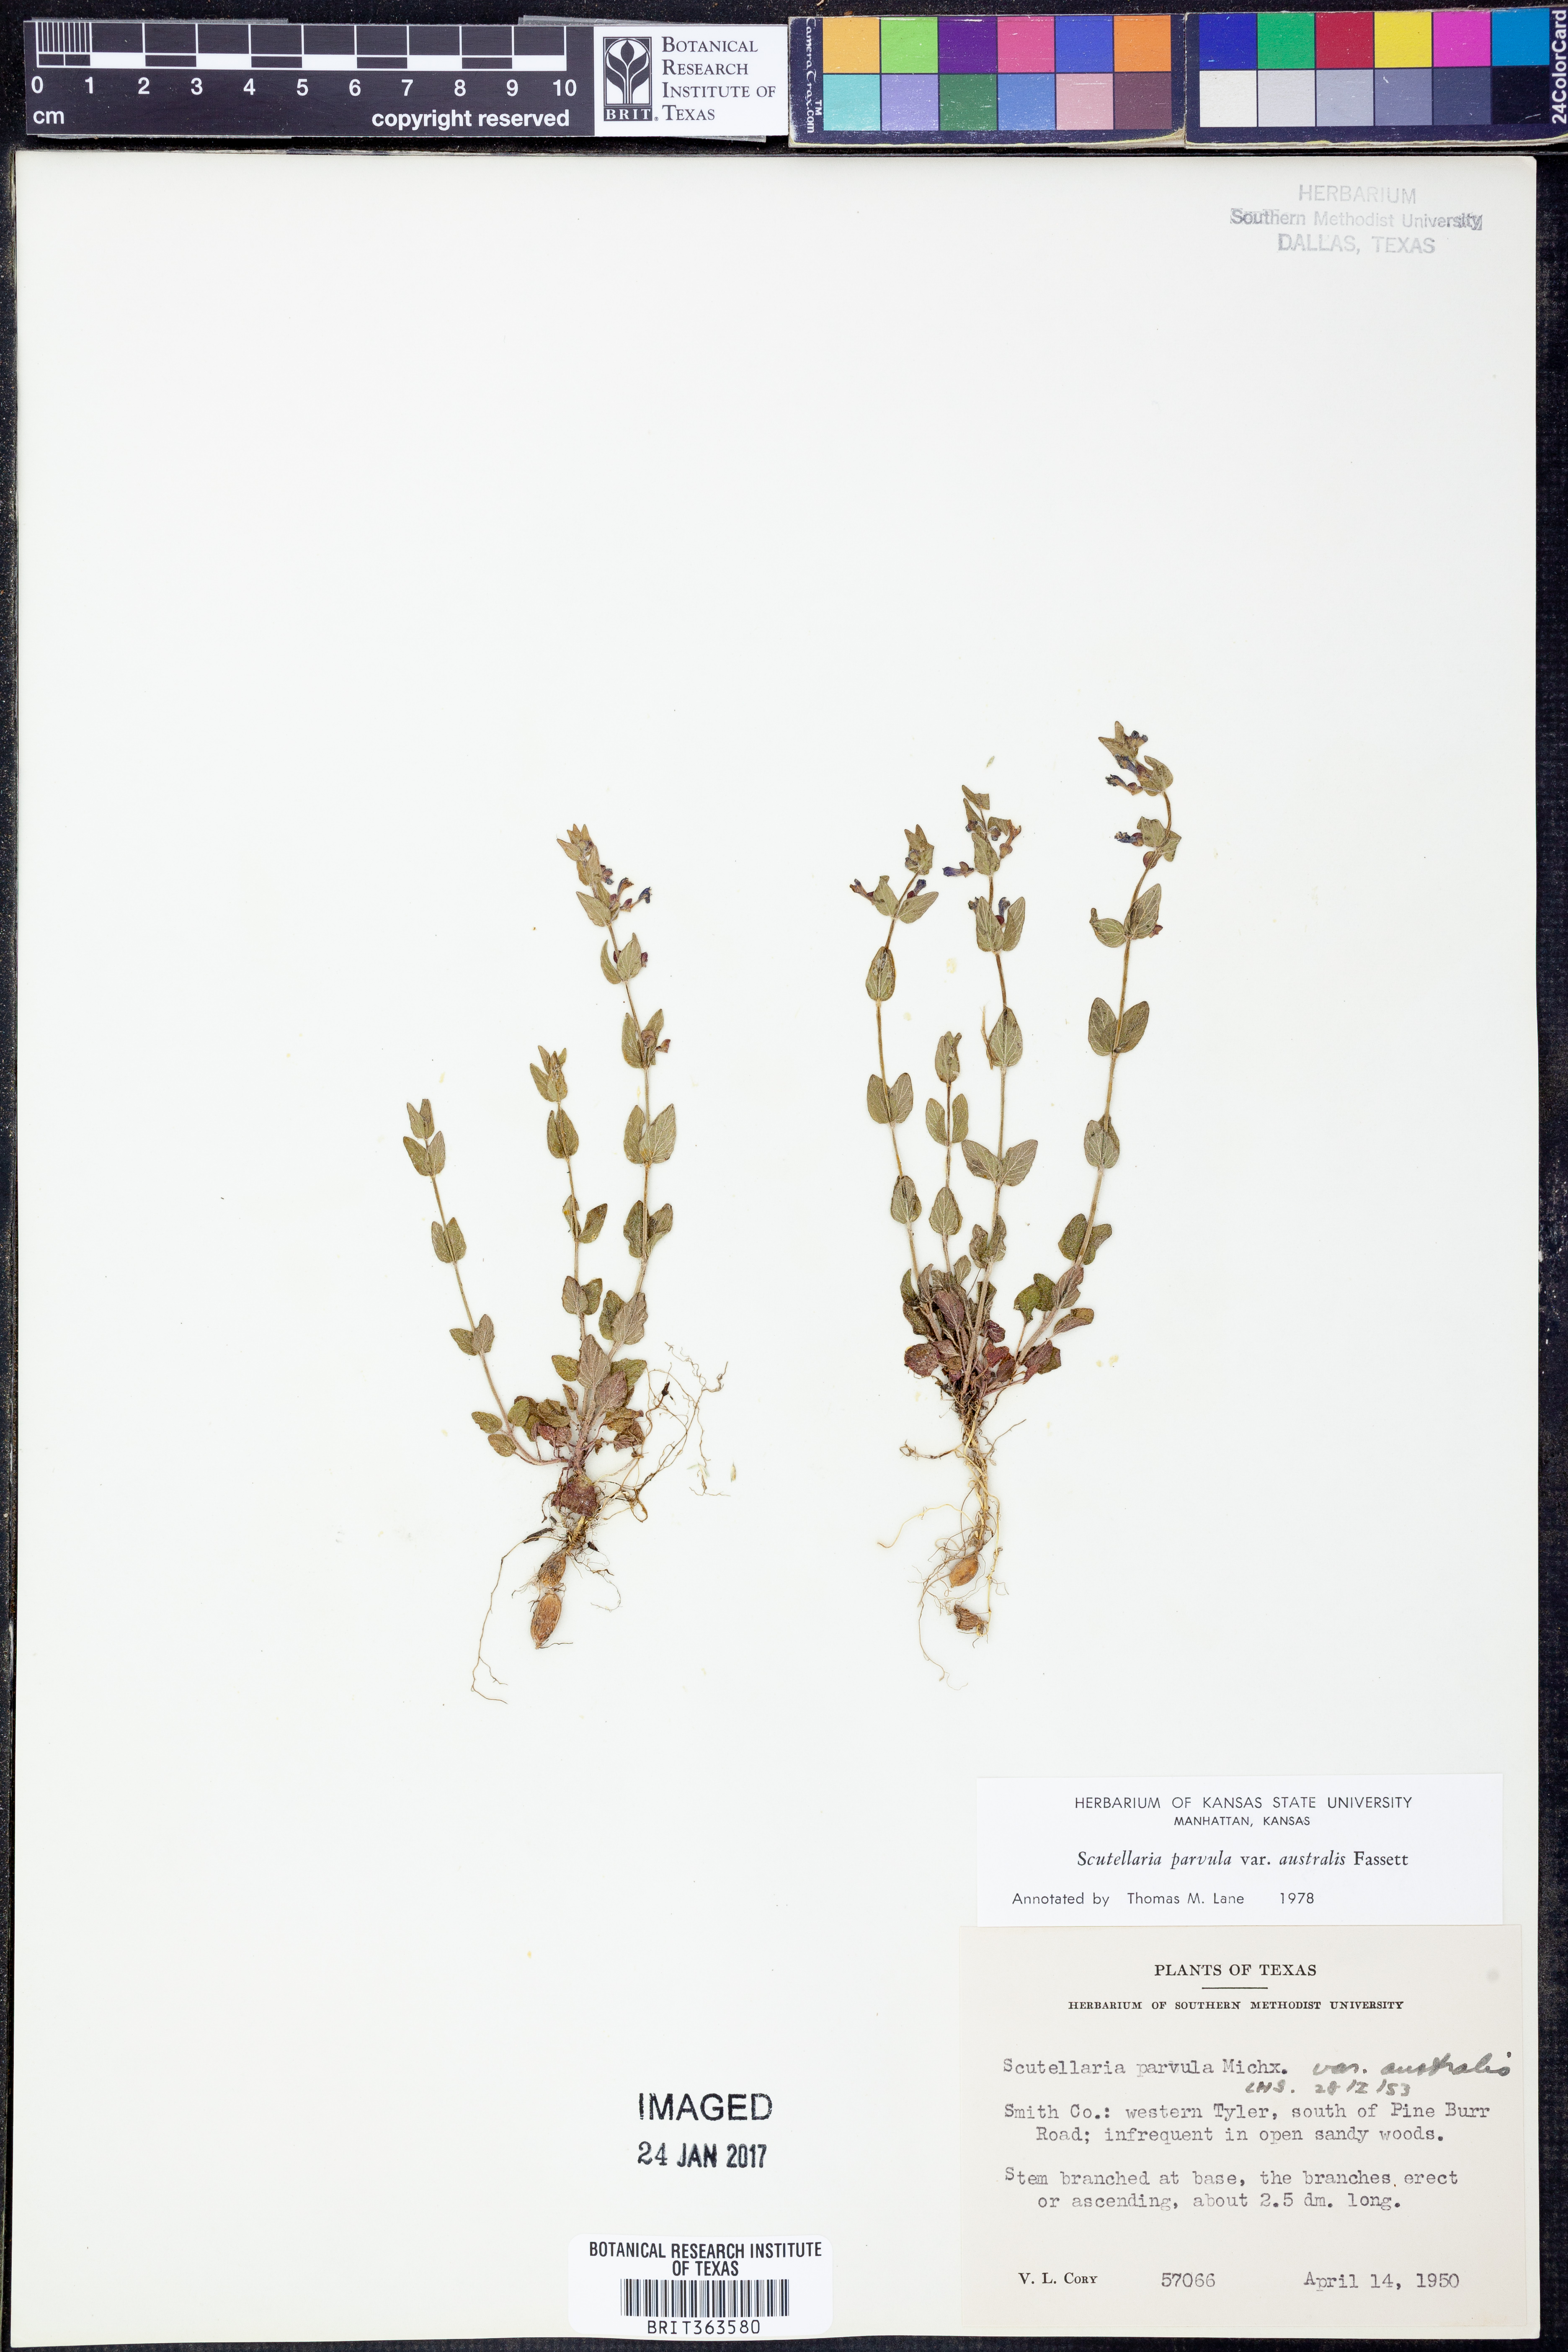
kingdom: Plantae
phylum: Tracheophyta
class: Magnoliopsida
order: Lamiales
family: Lamiaceae
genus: Scutellaria
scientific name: Scutellaria parvula
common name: Little scullcap
